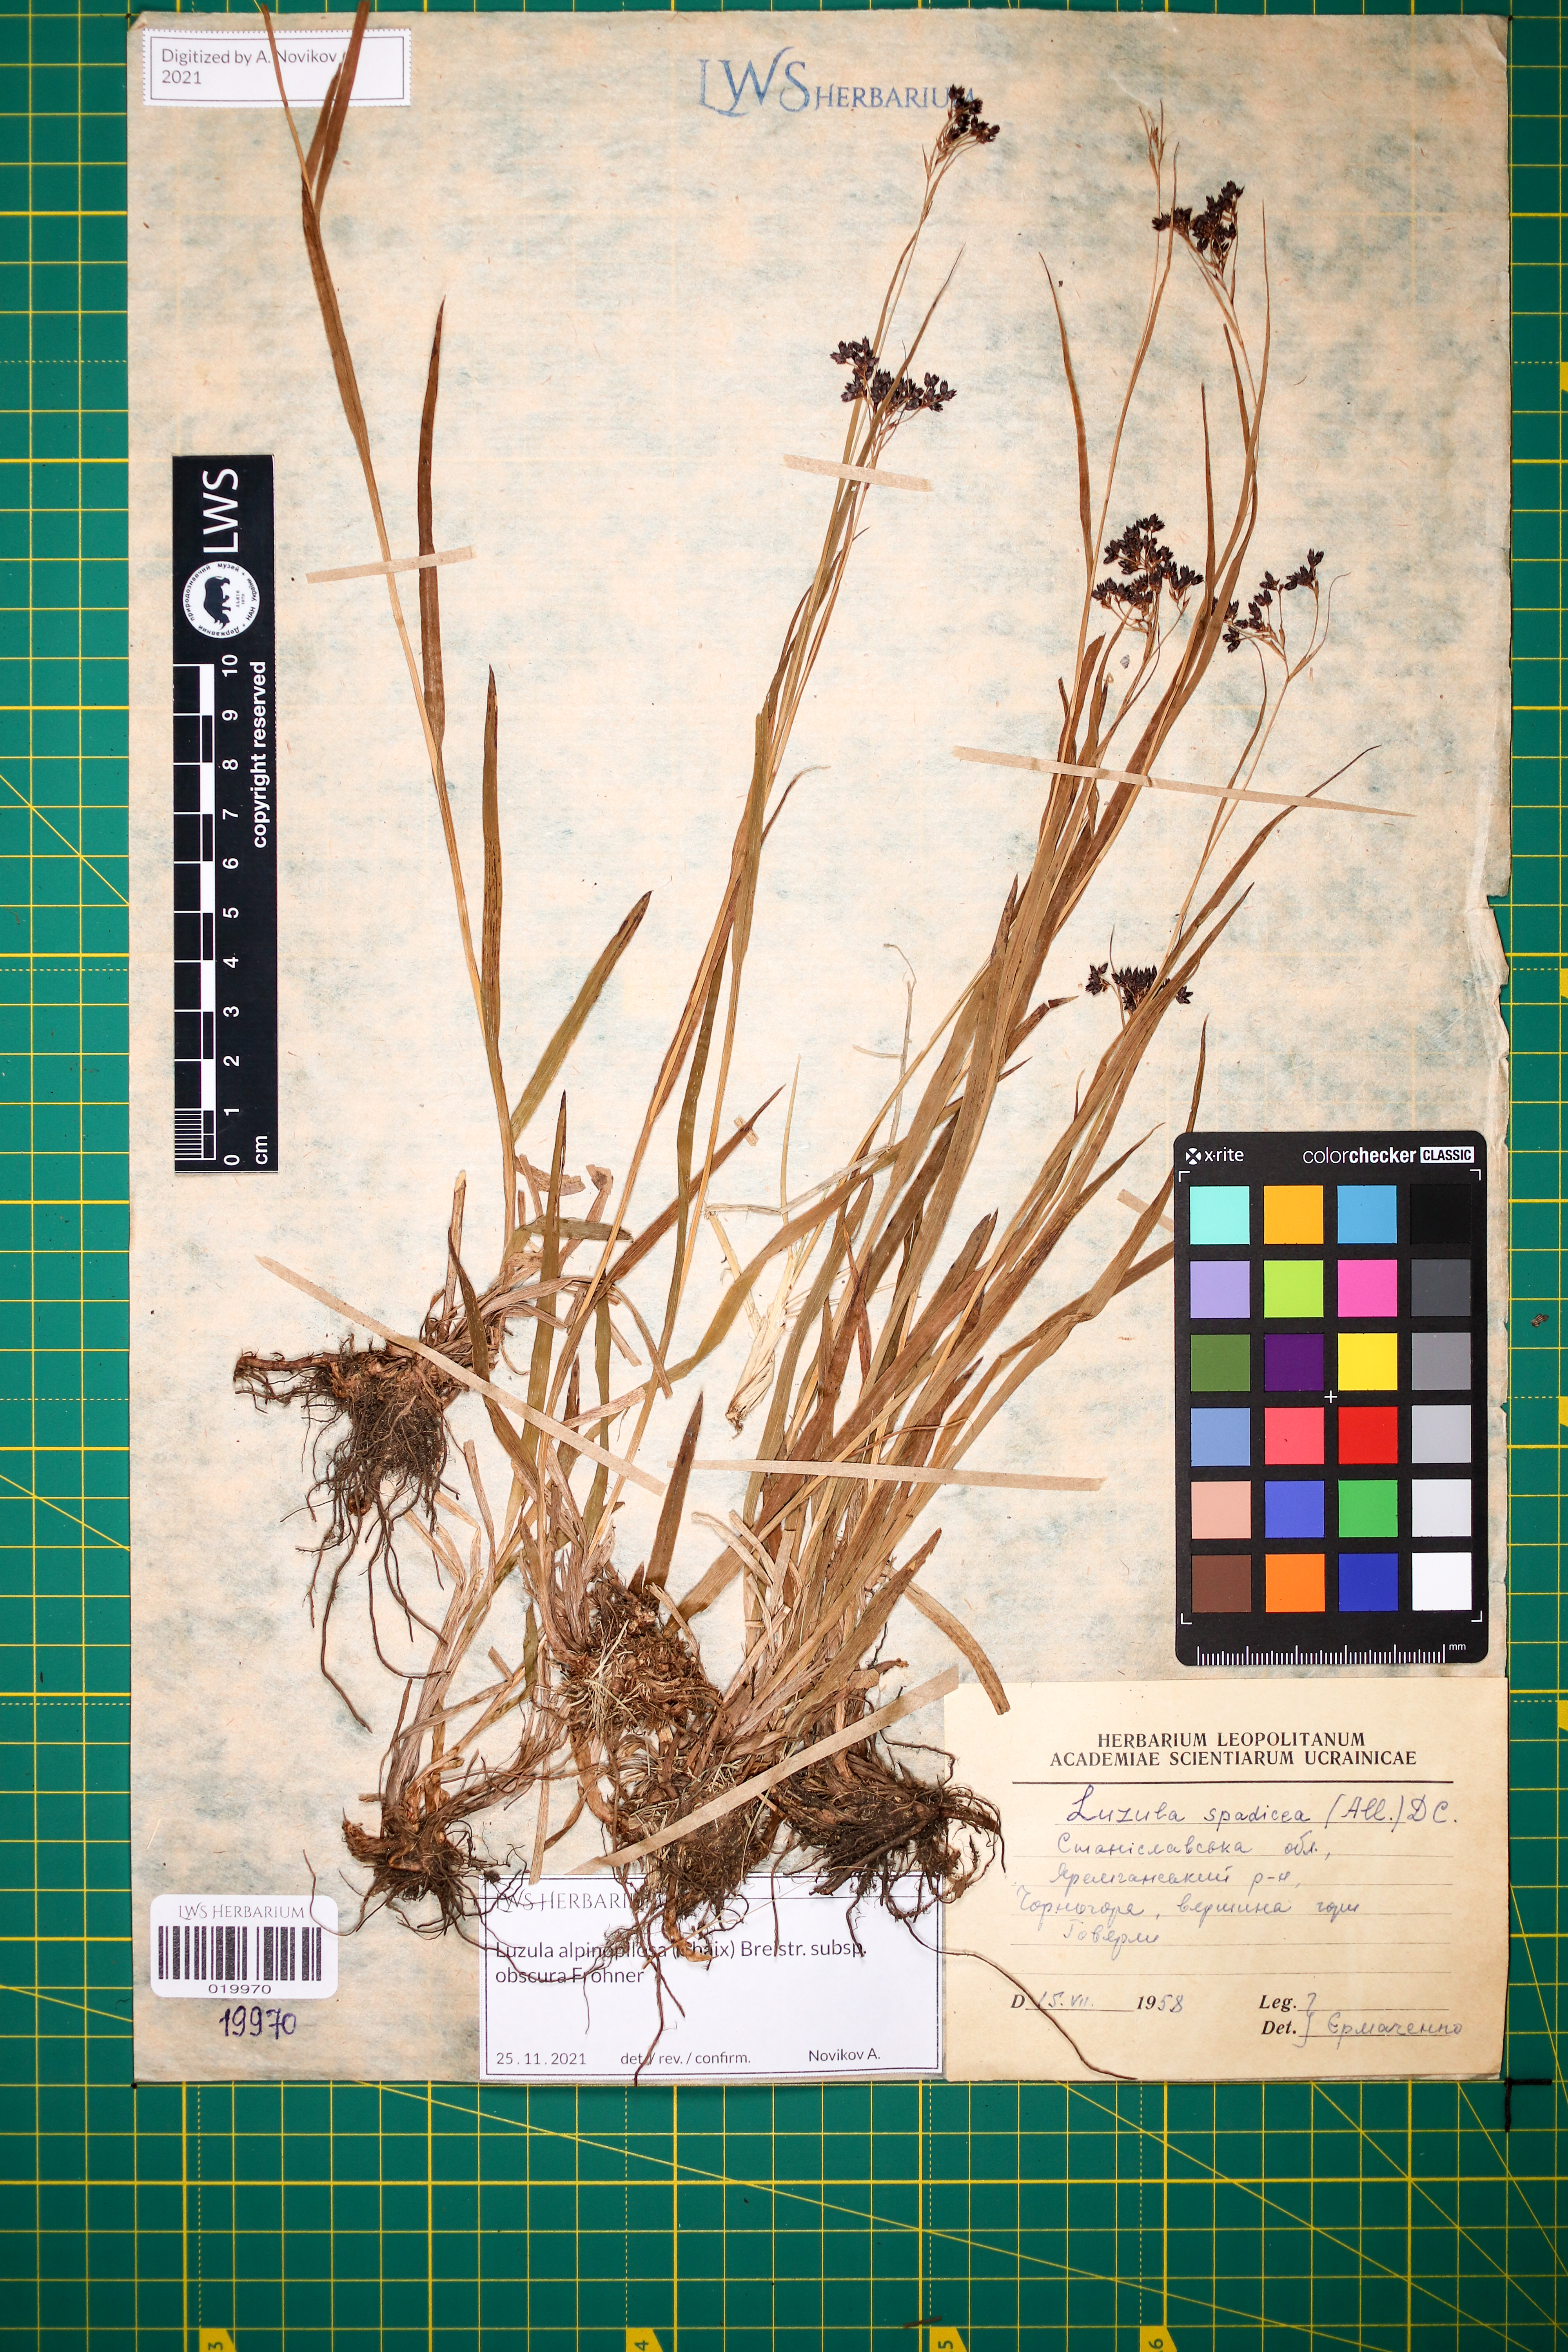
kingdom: Plantae
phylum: Tracheophyta
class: Liliopsida
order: Poales
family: Juncaceae
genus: Luzula
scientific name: Luzula alpinopilosa
